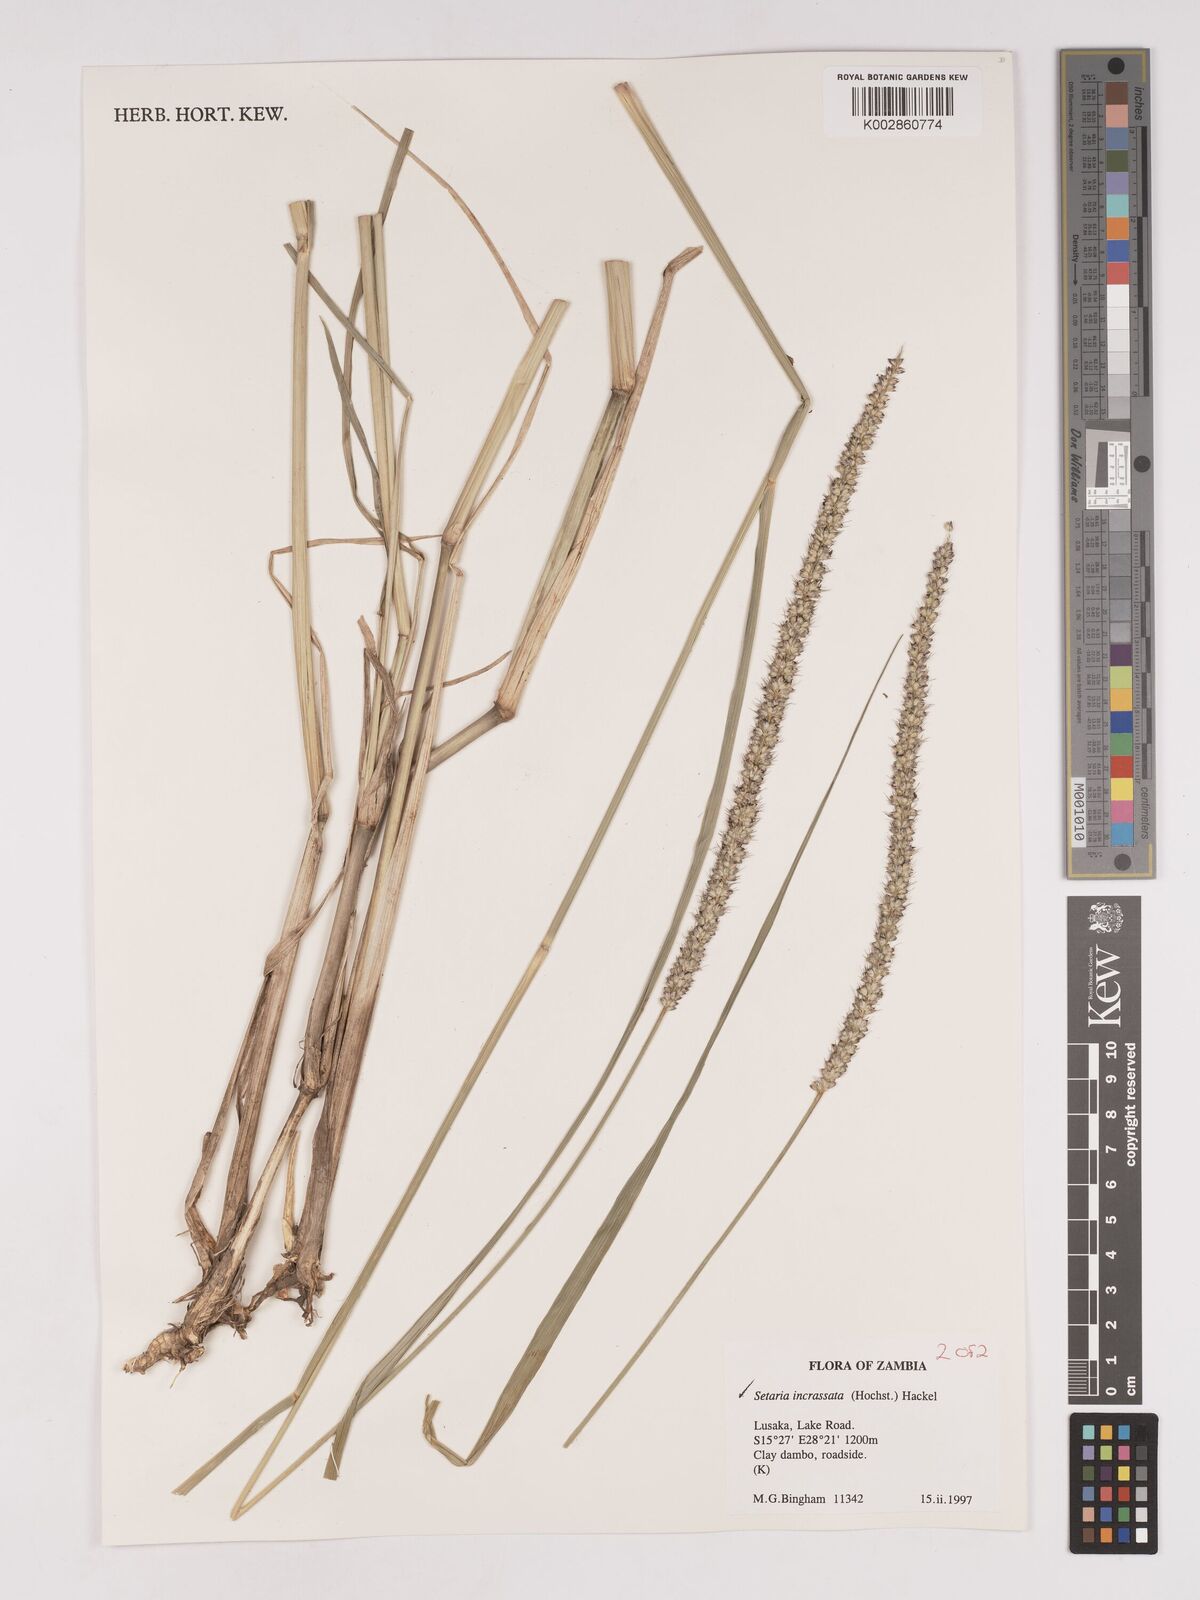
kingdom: Plantae
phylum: Tracheophyta
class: Liliopsida
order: Poales
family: Poaceae
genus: Setaria
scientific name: Setaria incrassata
